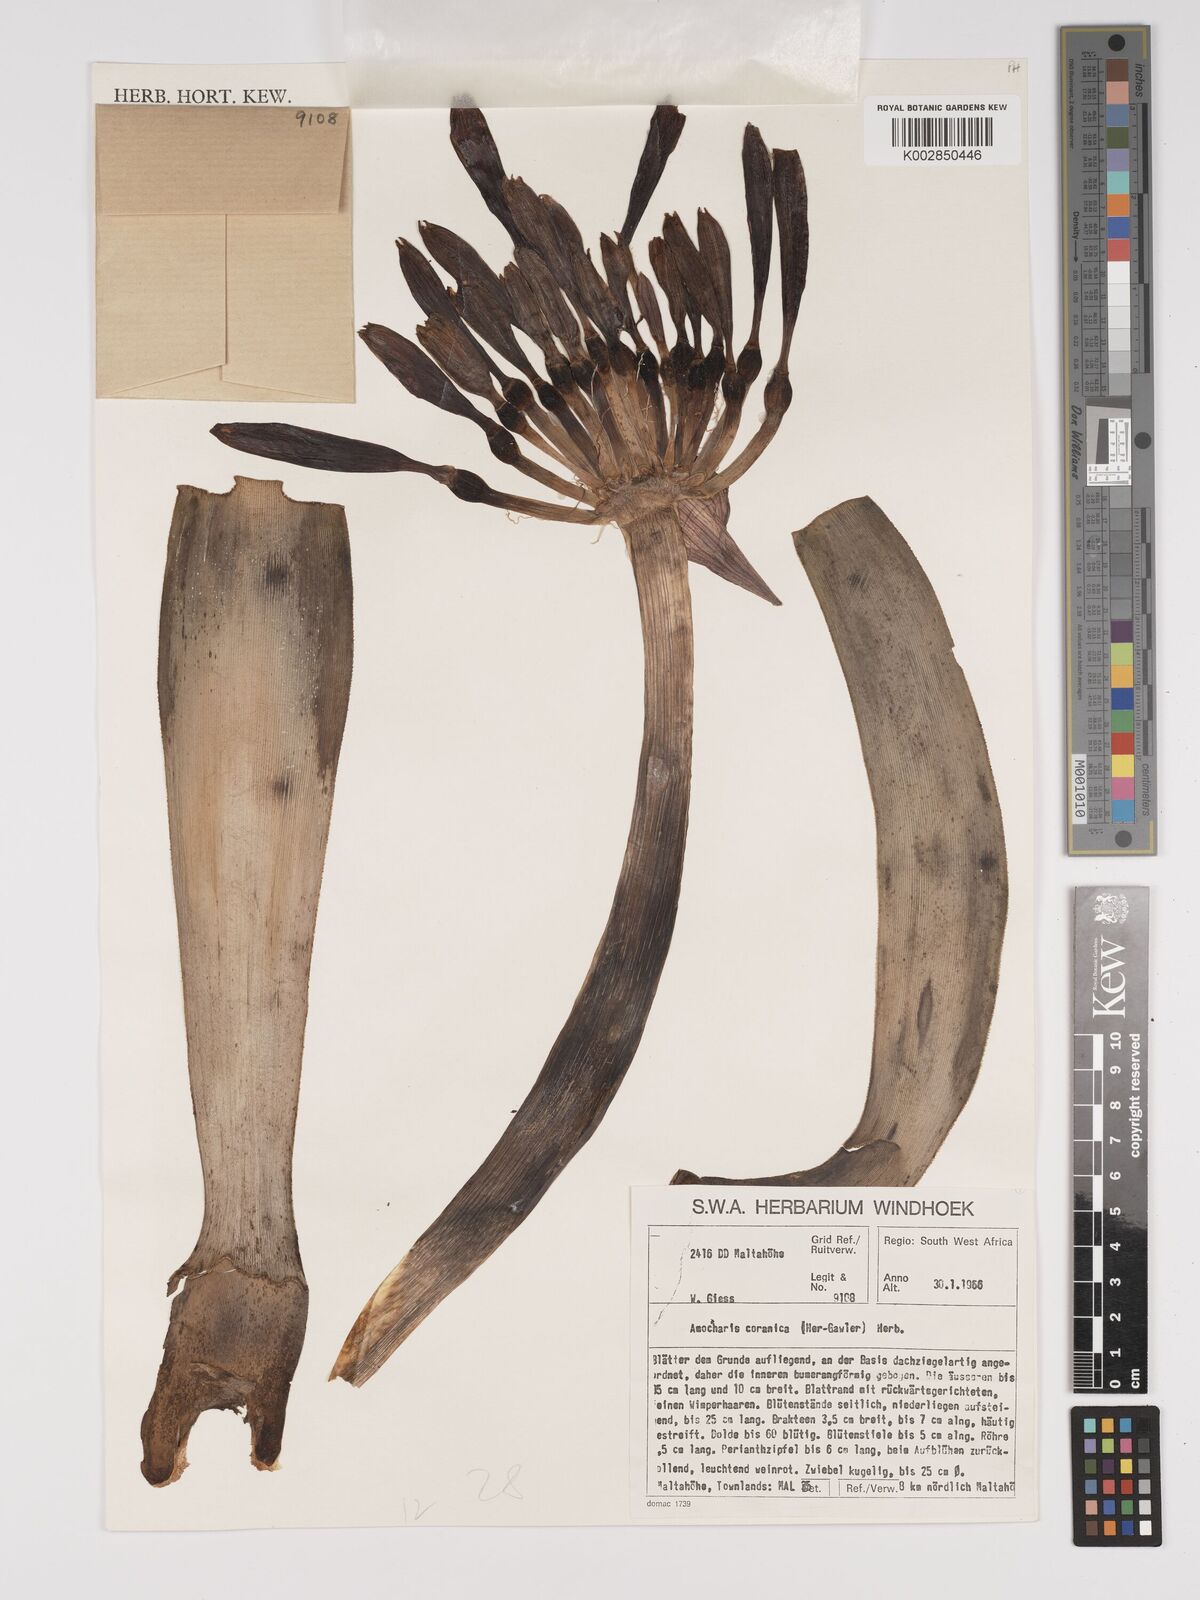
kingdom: Plantae
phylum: Tracheophyta
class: Liliopsida
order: Asparagales
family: Amaryllidaceae
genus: Ammocharis
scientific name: Ammocharis coranica
